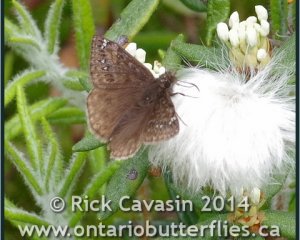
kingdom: Animalia
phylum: Arthropoda
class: Insecta
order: Lepidoptera
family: Hesperiidae
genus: Gesta
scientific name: Gesta
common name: Juvenal's Duskywing
